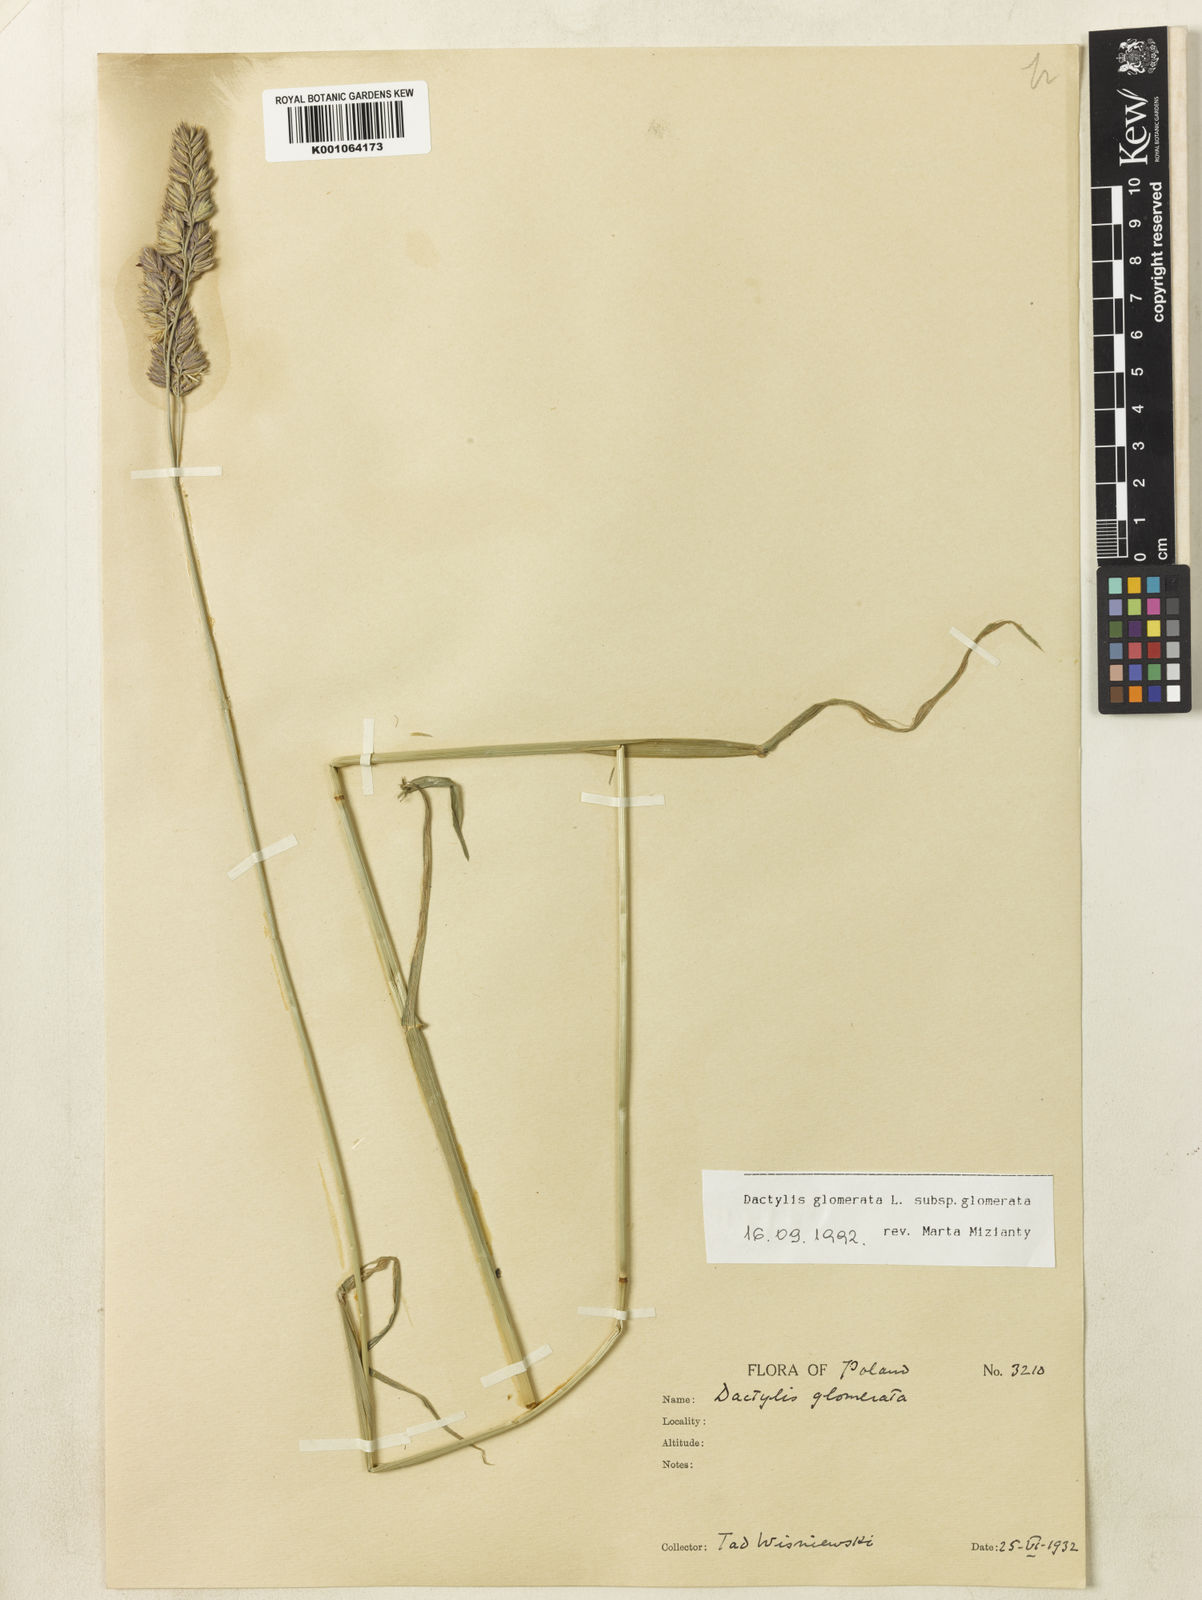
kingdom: Plantae
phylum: Tracheophyta
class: Liliopsida
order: Poales
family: Poaceae
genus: Dactylis
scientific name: Dactylis glomerata
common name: Orchardgrass
